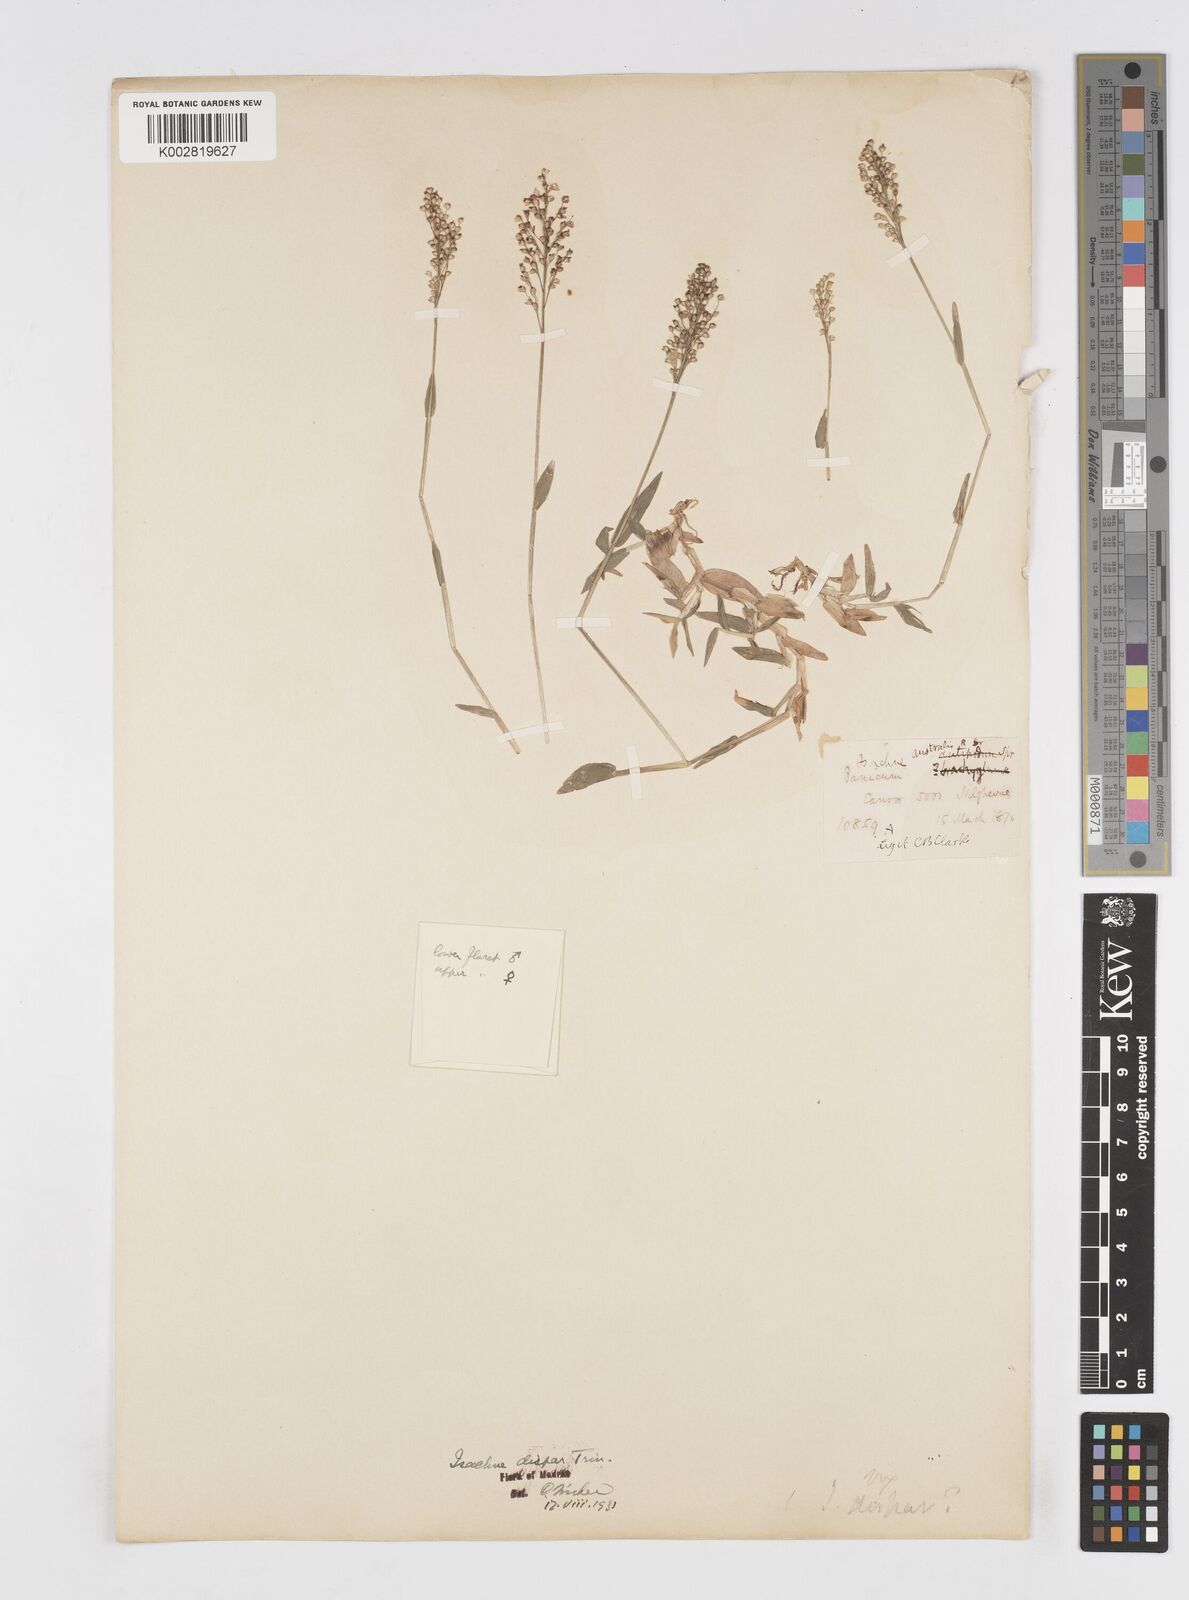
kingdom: Plantae
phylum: Tracheophyta
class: Liliopsida
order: Poales
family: Poaceae
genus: Isachne
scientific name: Isachne globosa
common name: Swamp millet
